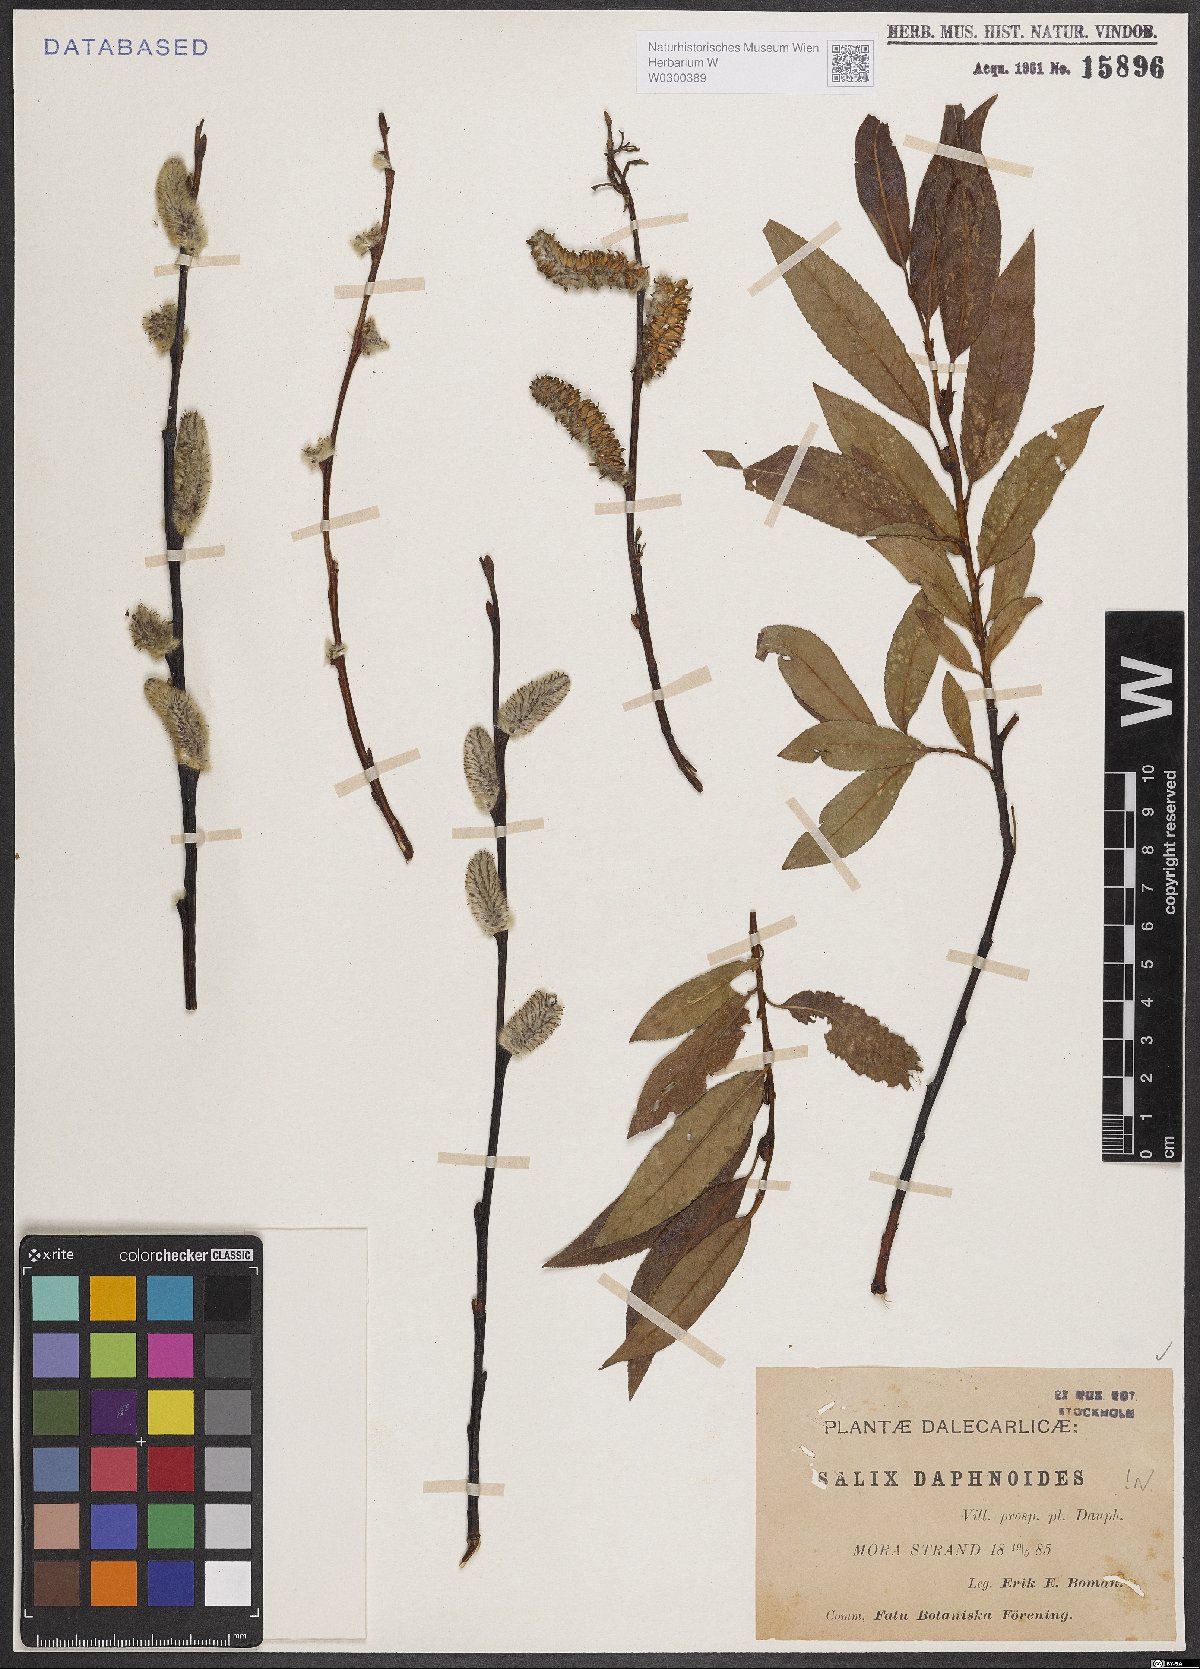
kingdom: Plantae
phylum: Tracheophyta
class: Magnoliopsida
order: Malpighiales
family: Salicaceae
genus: Salix
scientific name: Salix daphnoides
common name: European violet-willow
